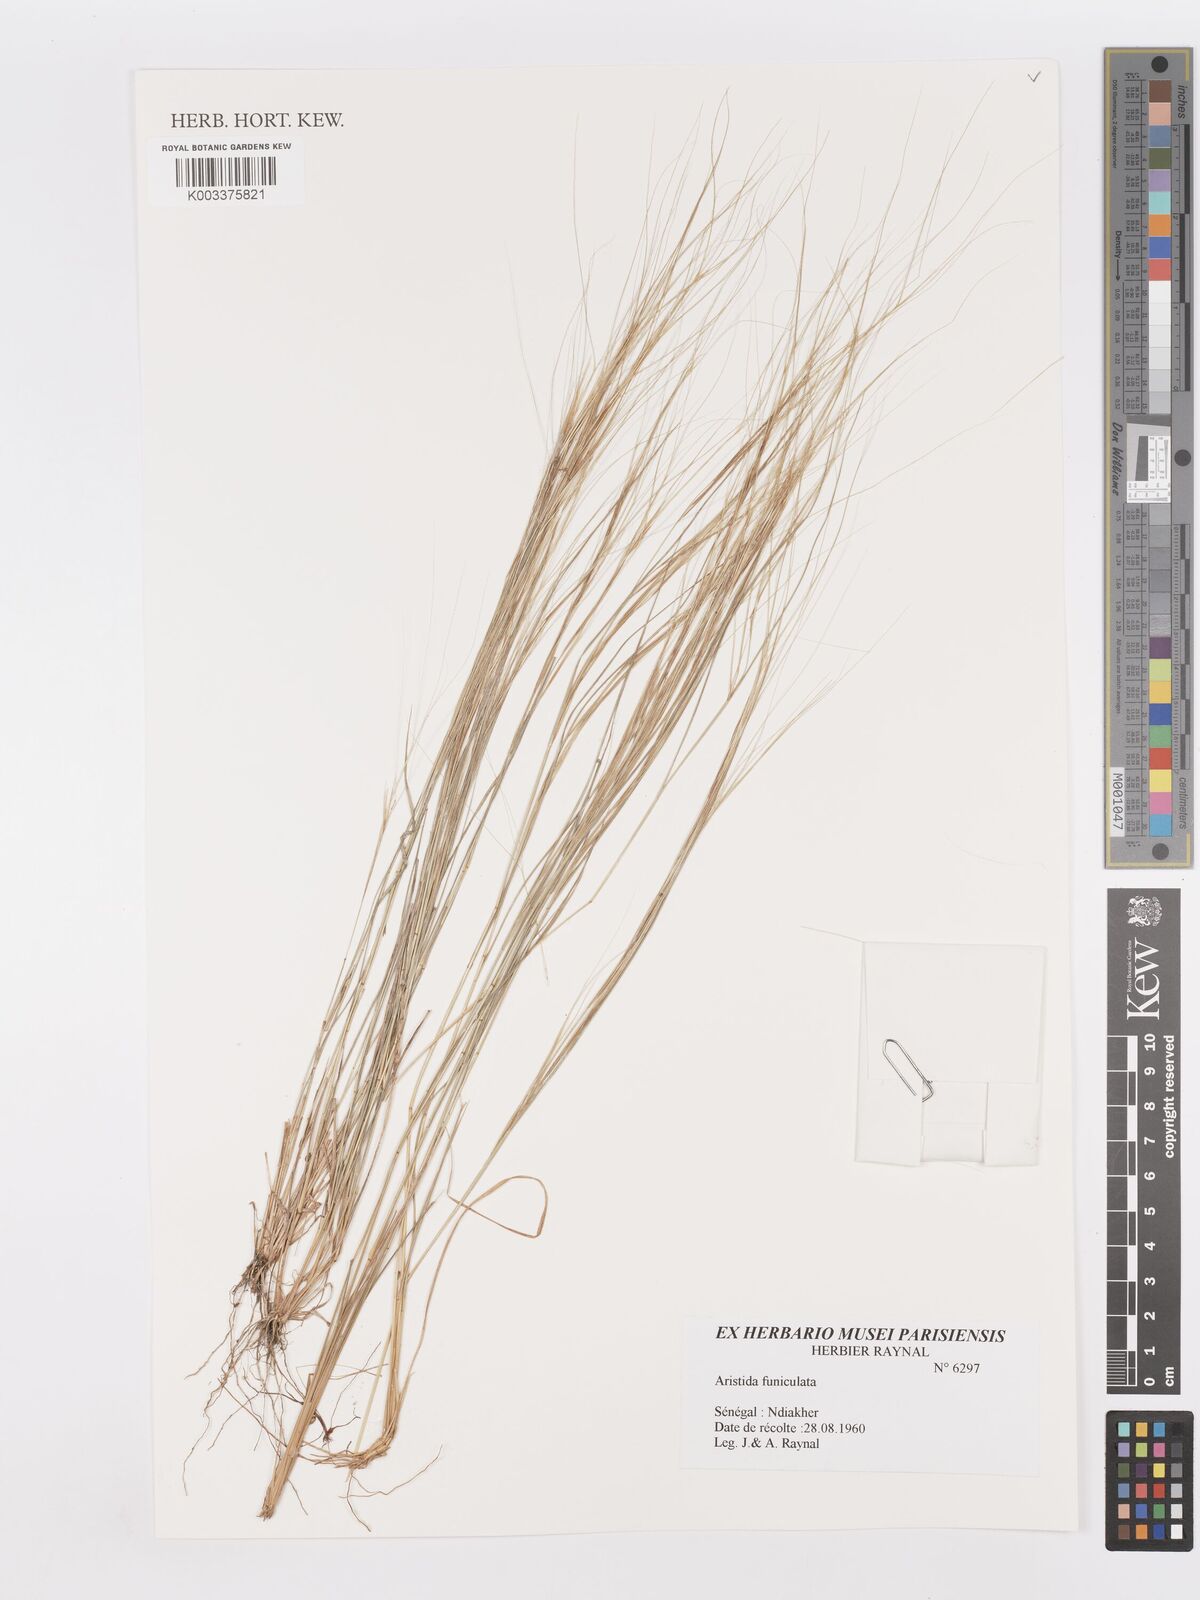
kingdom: Plantae
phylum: Tracheophyta
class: Liliopsida
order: Poales
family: Poaceae
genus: Aristida
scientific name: Aristida funiculata
